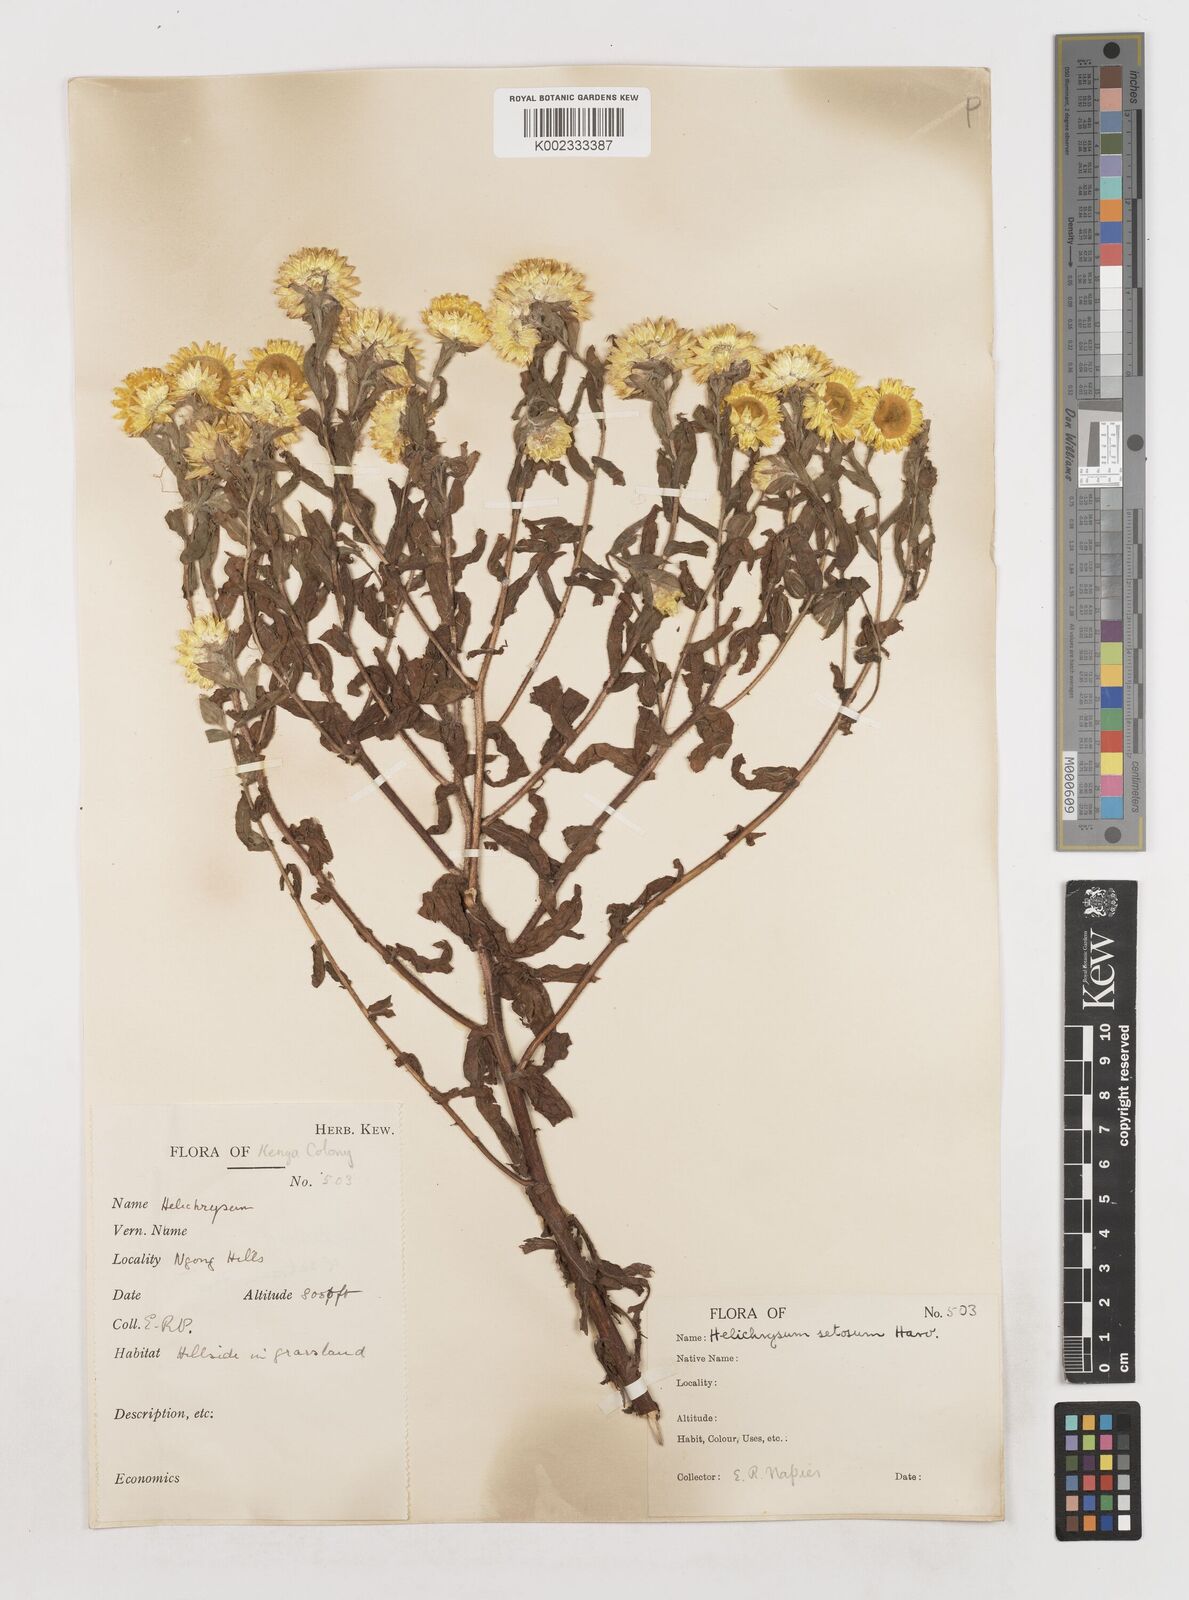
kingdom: Plantae
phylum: Tracheophyta
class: Magnoliopsida
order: Asterales
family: Asteraceae
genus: Helichrysum
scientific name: Helichrysum setosum
